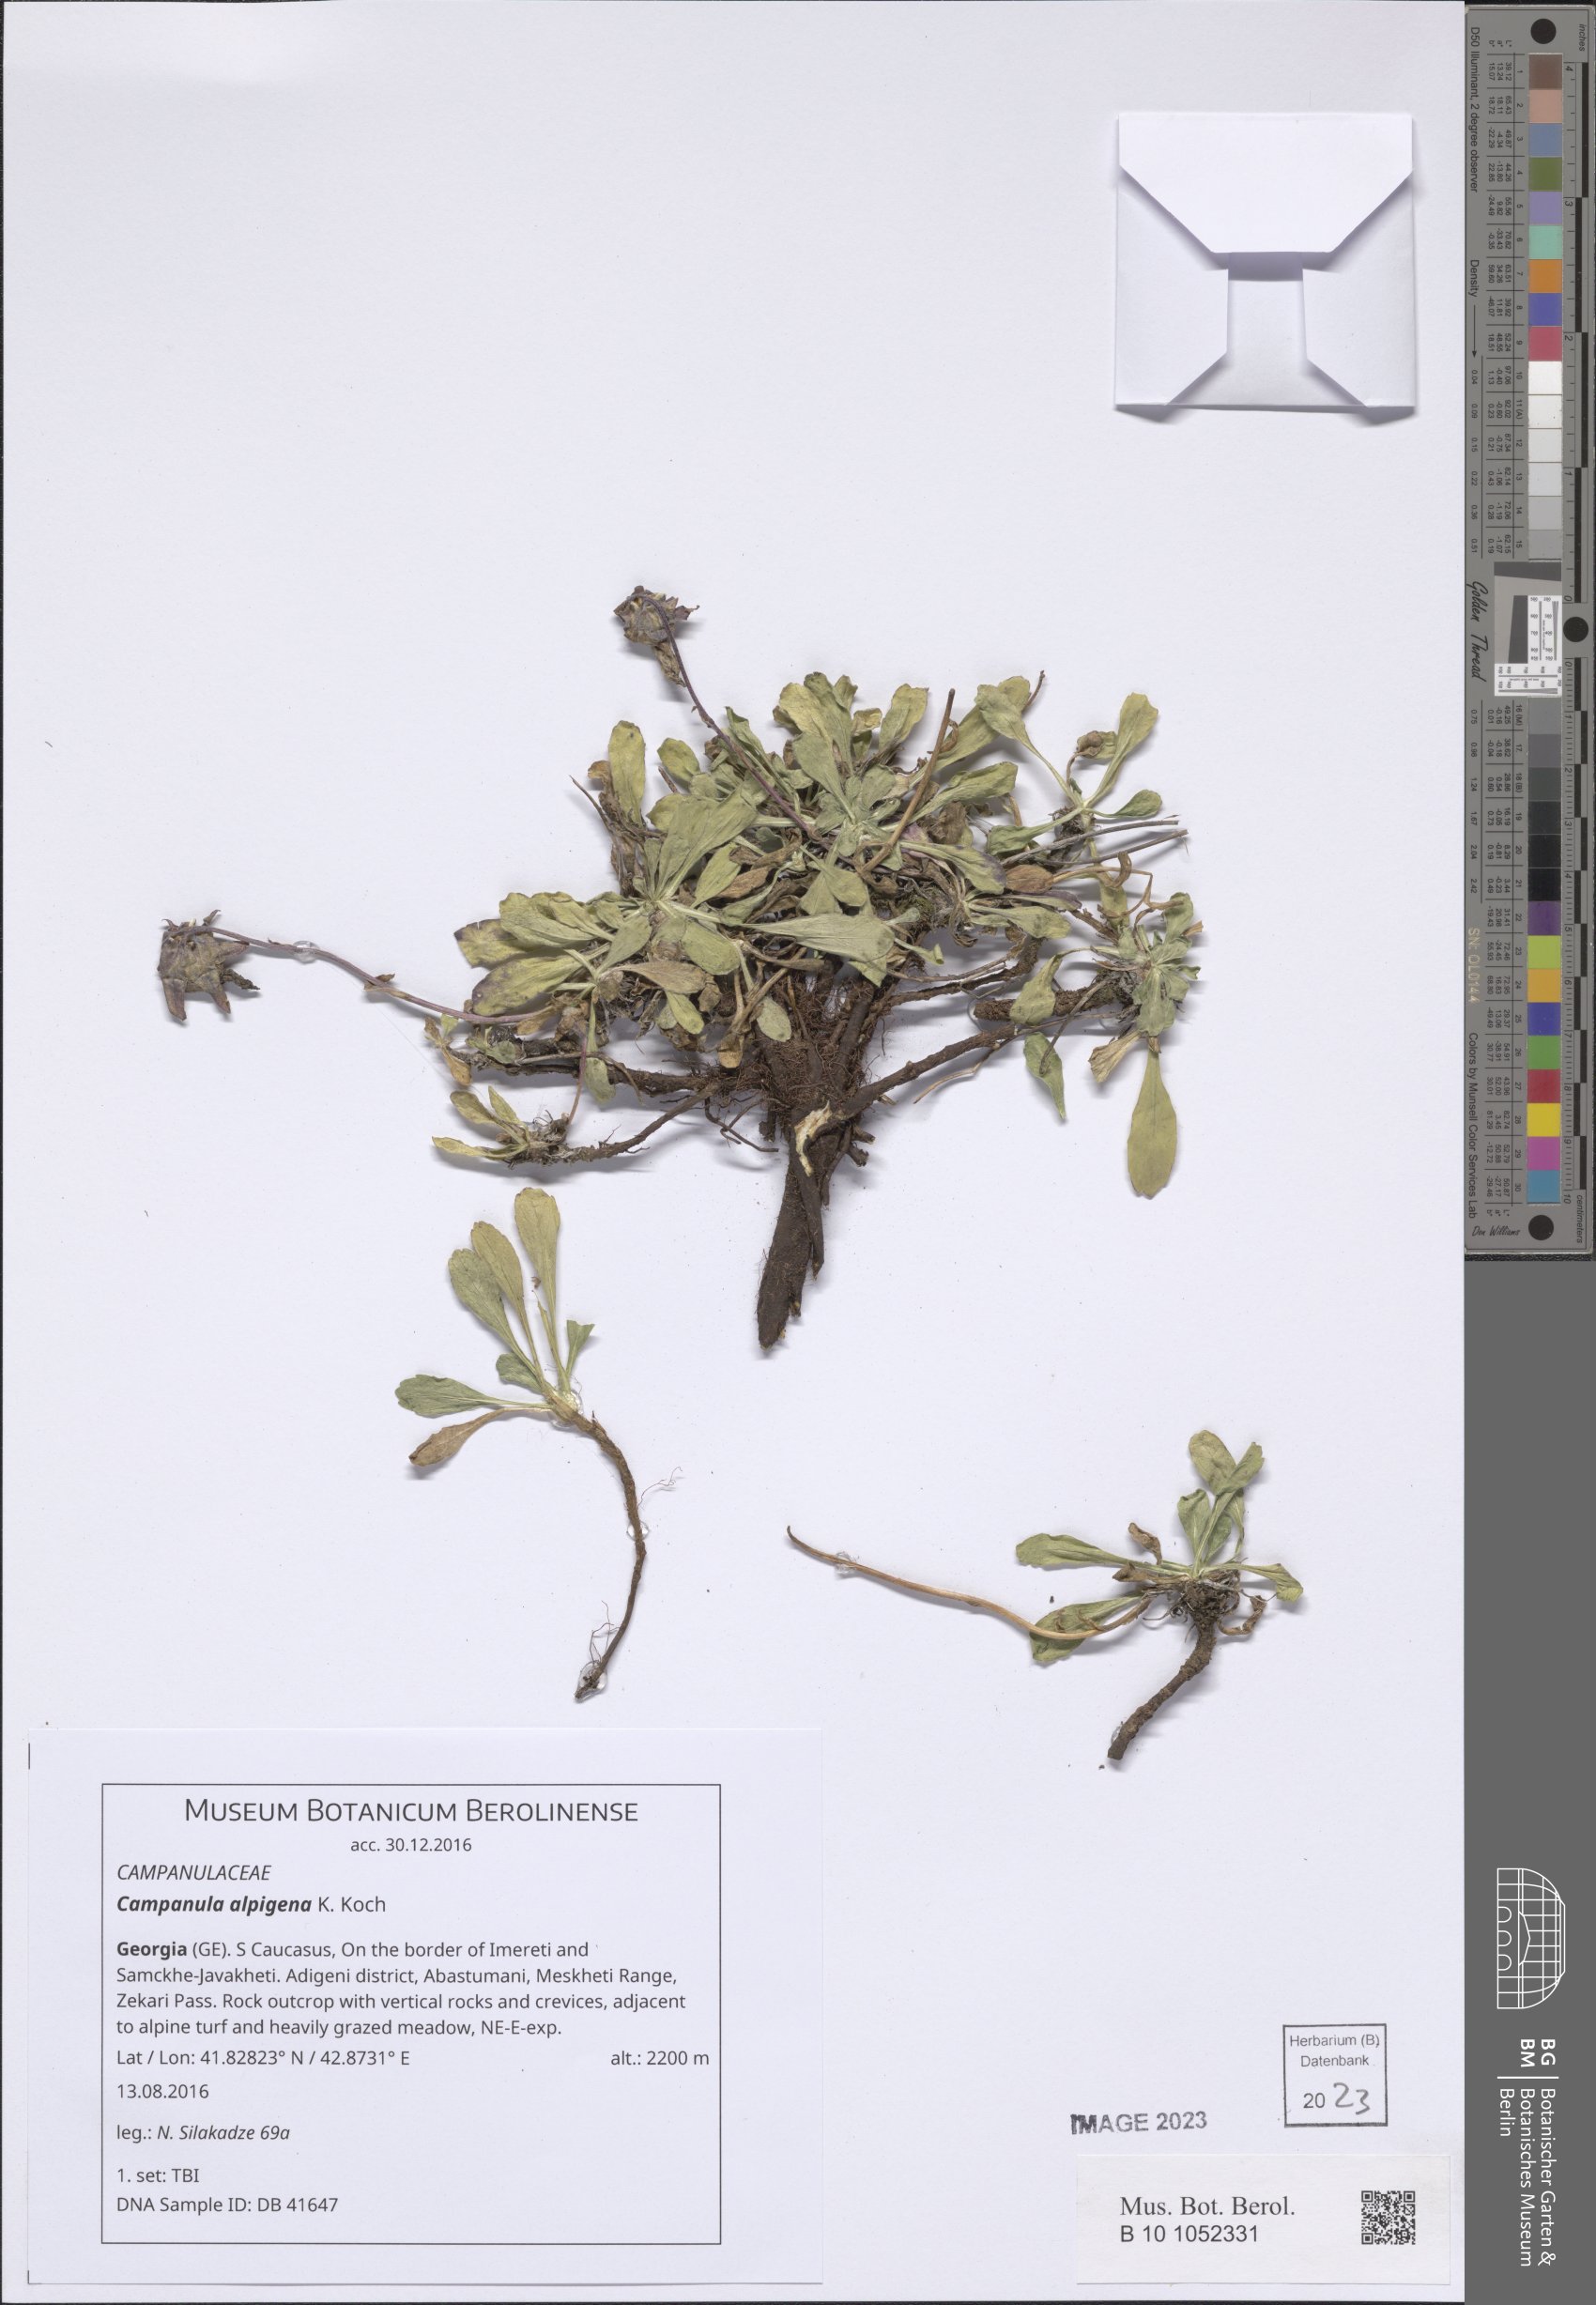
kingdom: Plantae
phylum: Tracheophyta
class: Magnoliopsida
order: Asterales
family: Campanulaceae
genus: Campanula
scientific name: Campanula saxifraga
